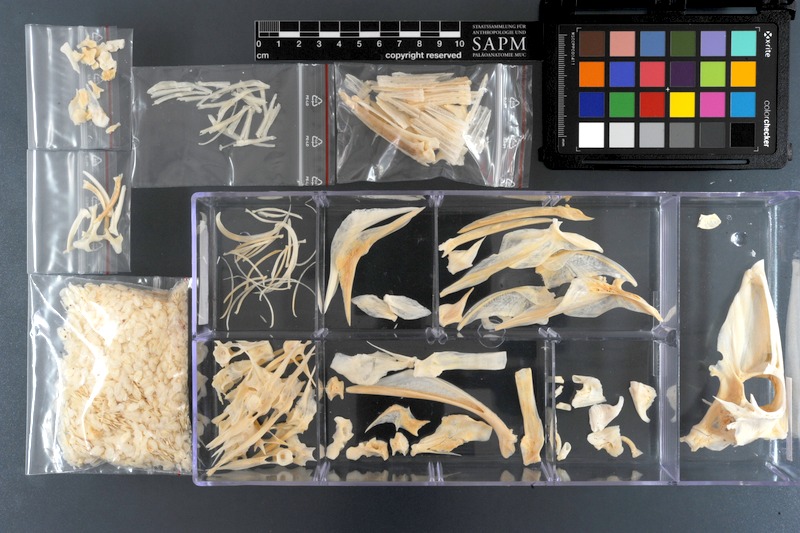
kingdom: Animalia
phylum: Chordata
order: Tetraodontiformes
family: Balistidae
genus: Sufflamen
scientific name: Sufflamen fraenatum
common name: Bridle triggerfish
